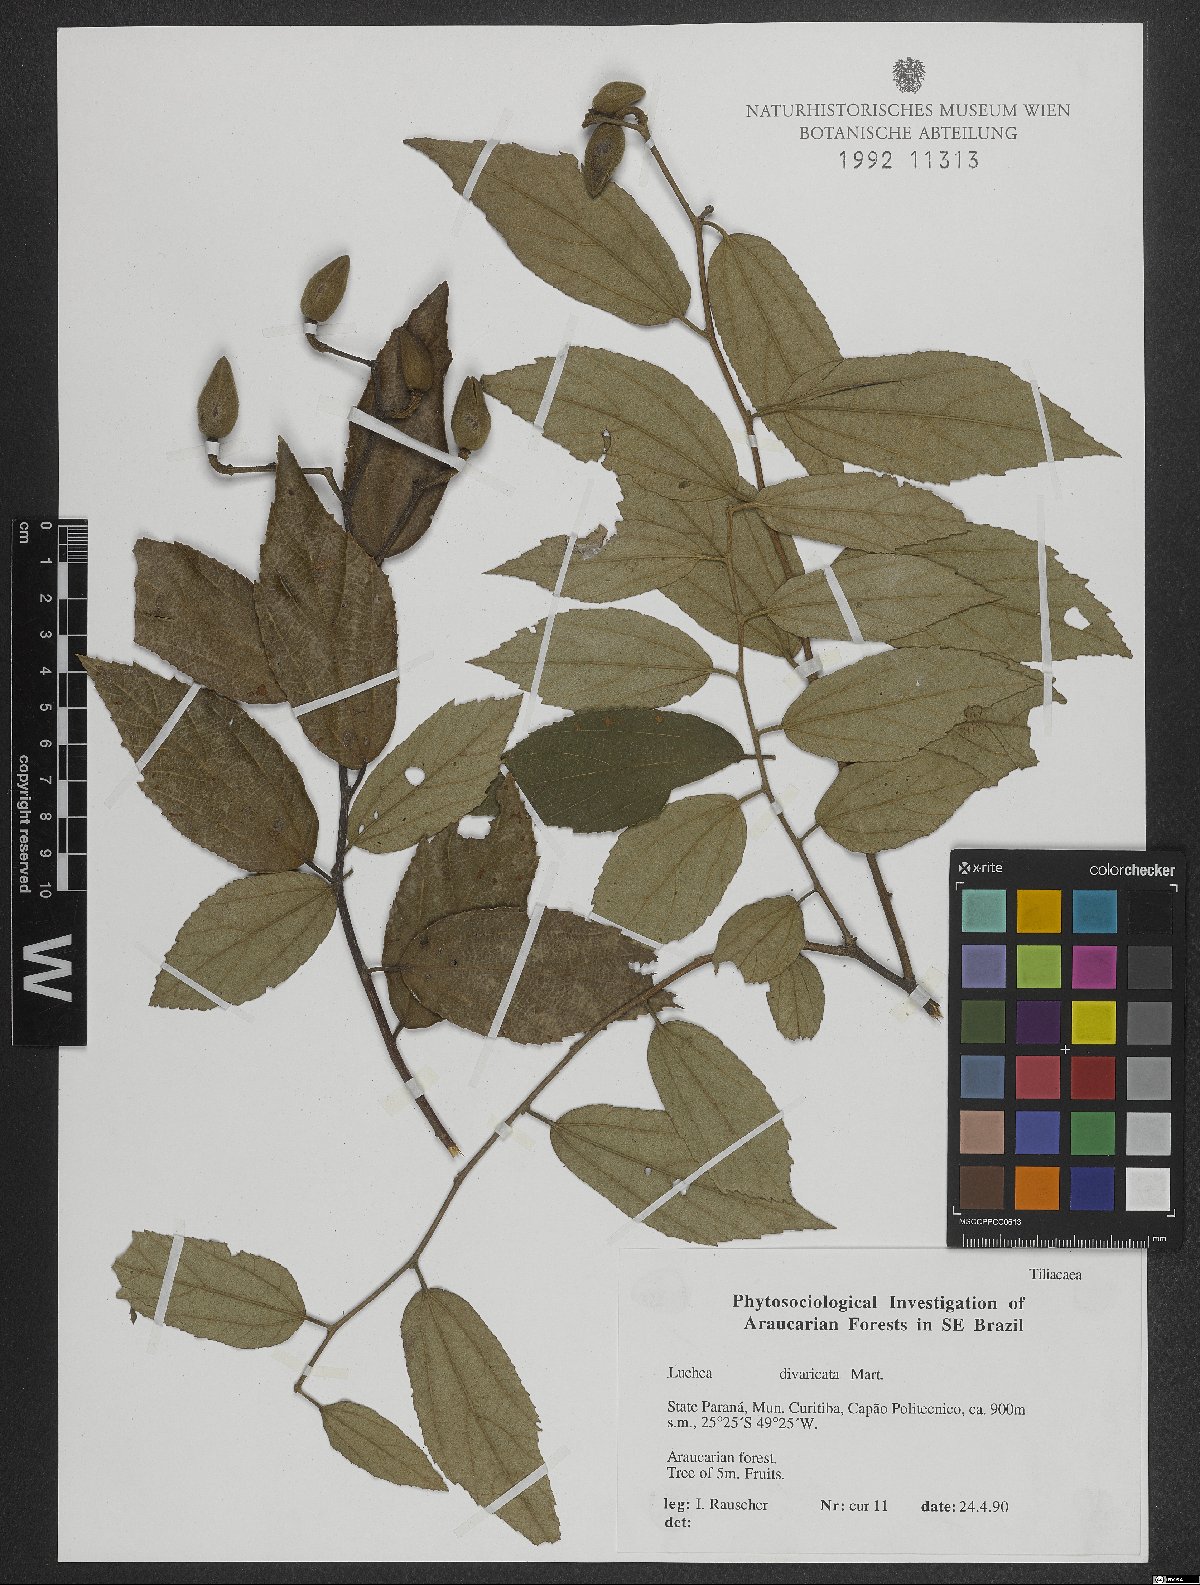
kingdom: Plantae
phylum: Tracheophyta
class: Magnoliopsida
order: Malvales
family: Malvaceae
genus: Luehea
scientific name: Luehea divaricata
